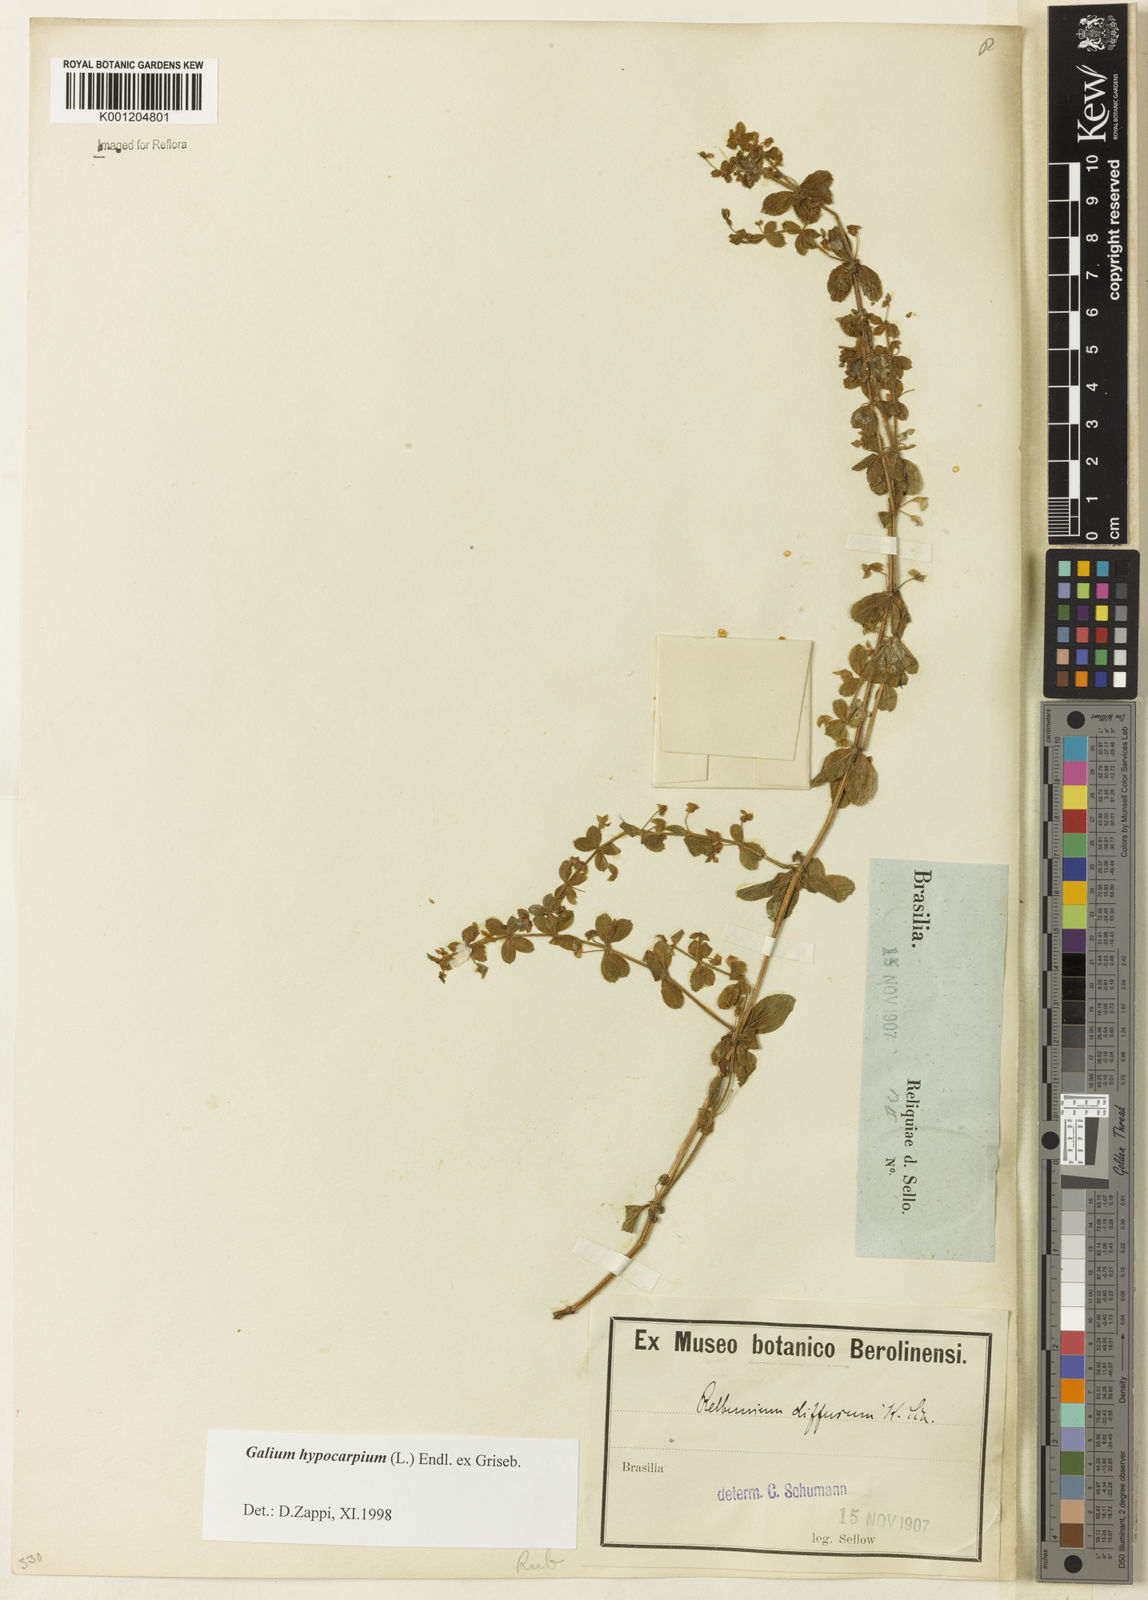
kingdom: Plantae
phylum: Tracheophyta
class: Magnoliopsida
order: Gentianales
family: Rubiaceae
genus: Galium
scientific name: Galium hypocarpium
